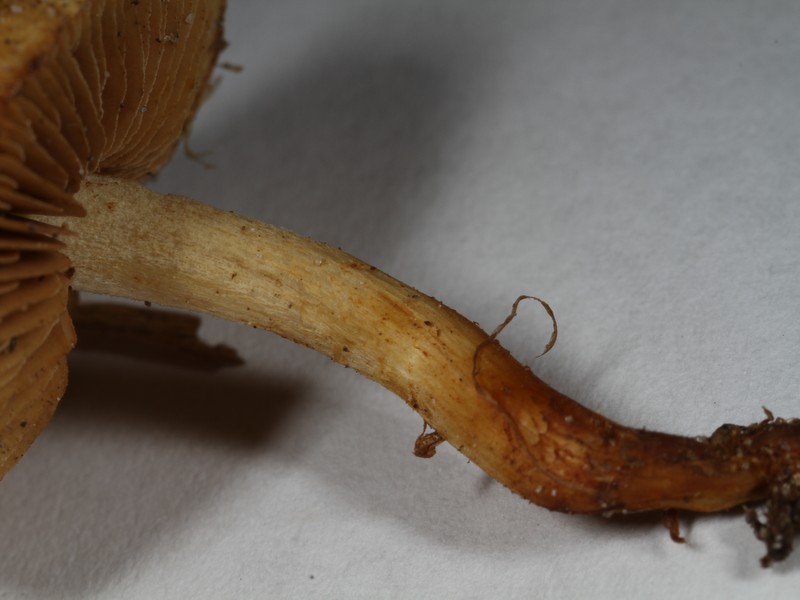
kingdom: Fungi
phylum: Basidiomycota
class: Agaricomycetes
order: Agaricales
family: Strophariaceae
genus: Pholiota
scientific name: Pholiota conissans
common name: pile-skælhat
